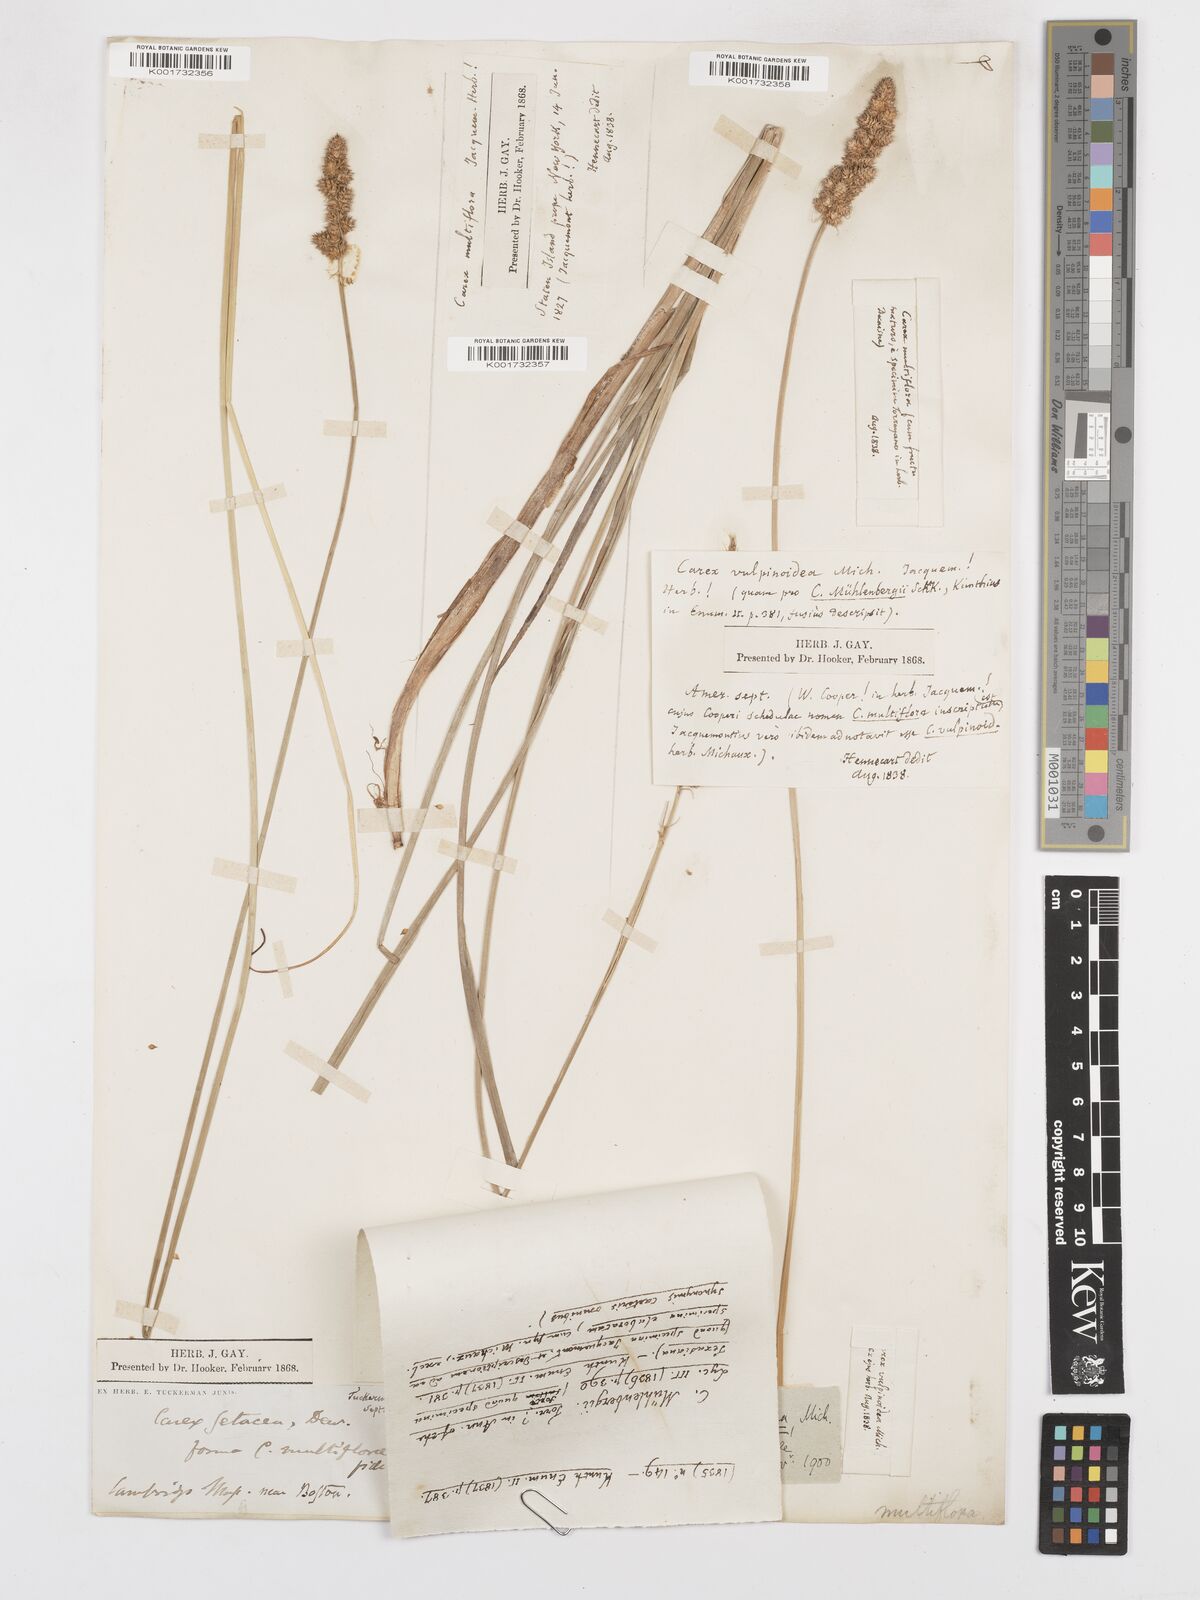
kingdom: Plantae
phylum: Tracheophyta
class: Liliopsida
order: Poales
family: Cyperaceae
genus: Carex
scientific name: Carex vulpinoidea
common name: American fox-sedge
